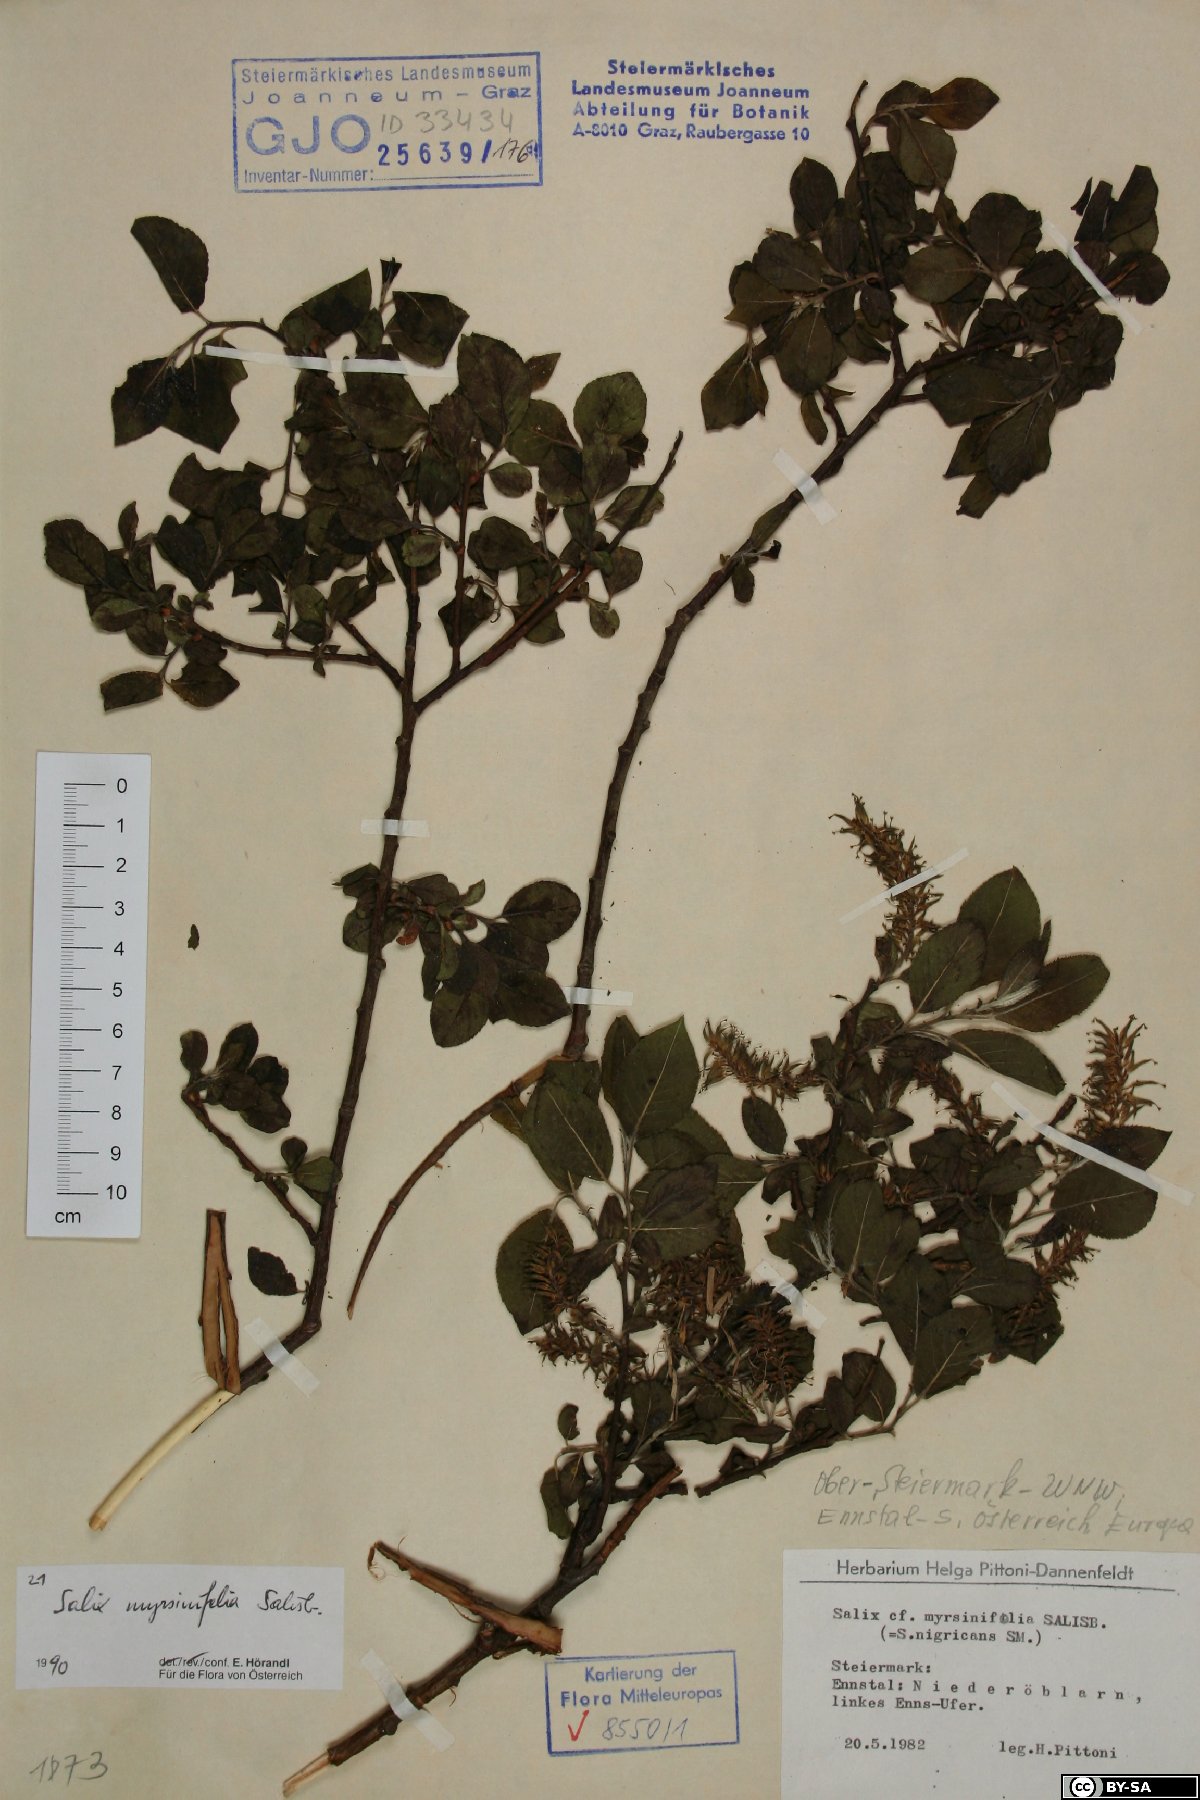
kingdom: Plantae
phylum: Tracheophyta
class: Magnoliopsida
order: Malpighiales
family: Salicaceae
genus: Salix
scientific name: Salix myrsinifolia
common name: Dark-leaved willow
